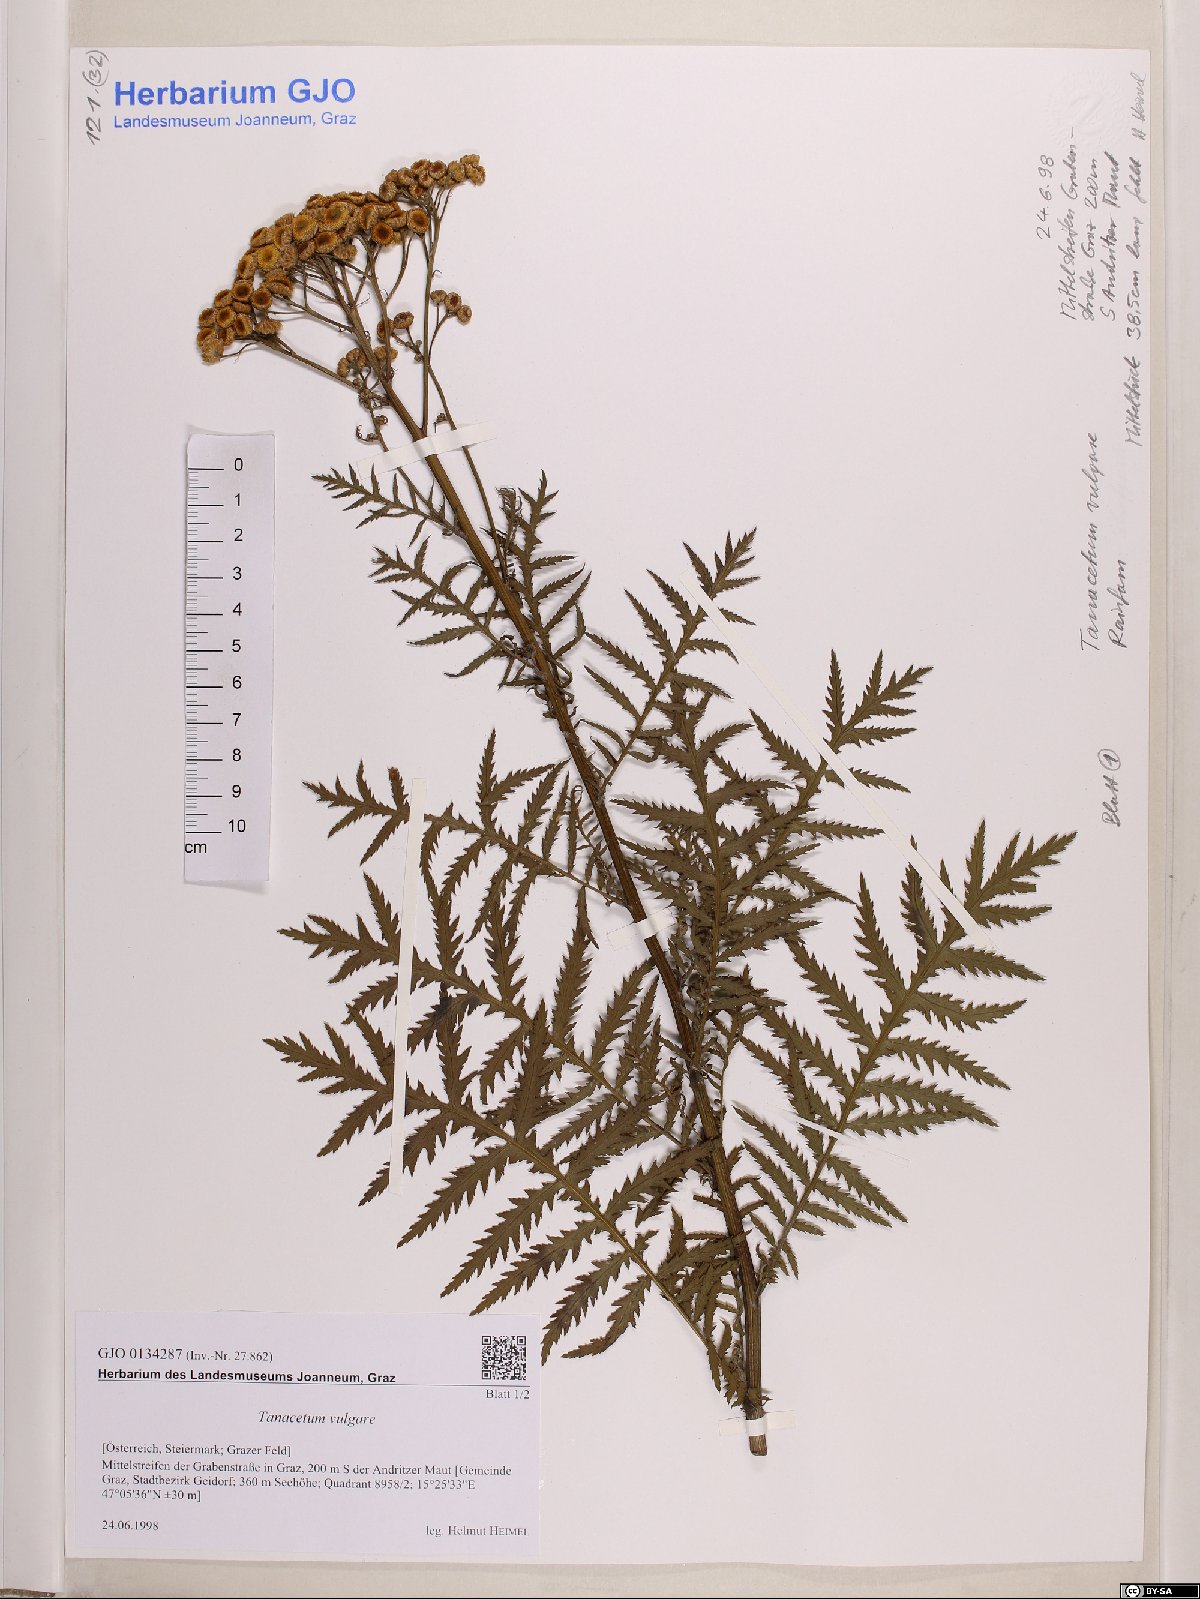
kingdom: Plantae
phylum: Tracheophyta
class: Magnoliopsida
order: Asterales
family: Asteraceae
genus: Tanacetum
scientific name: Tanacetum vulgare
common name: Common tansy
